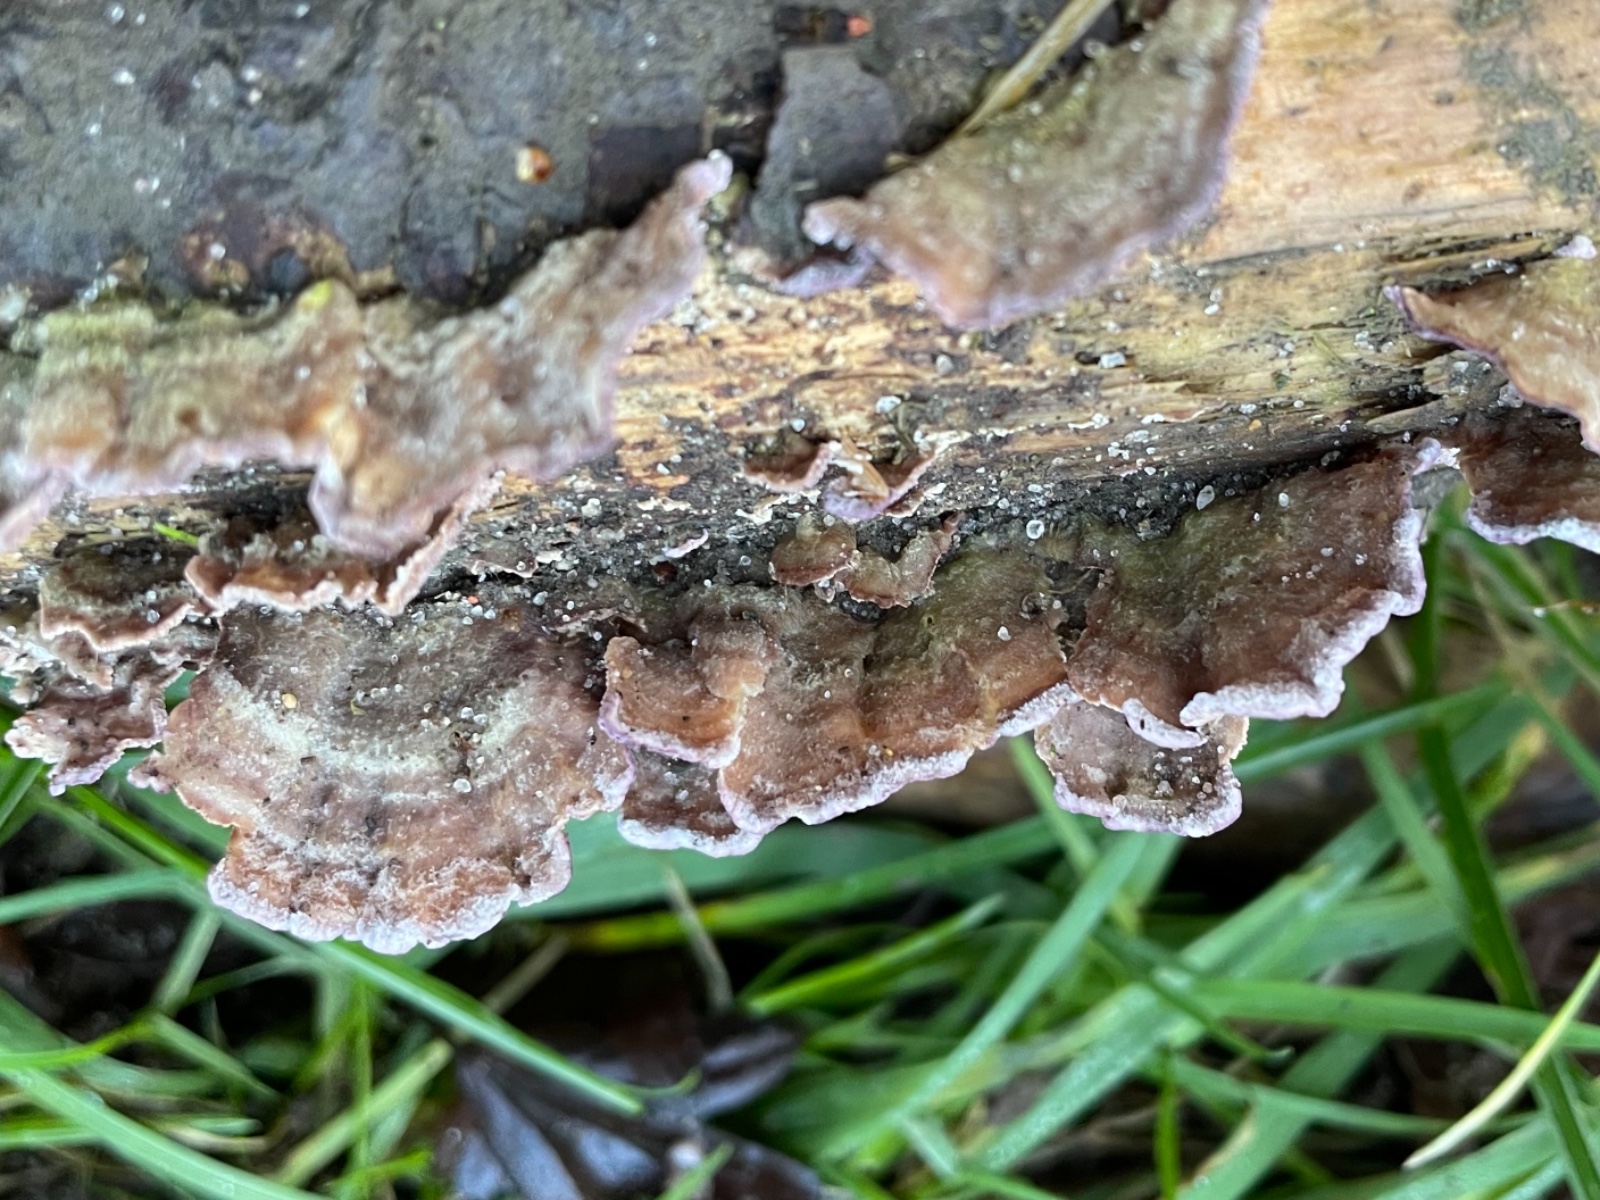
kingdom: Fungi
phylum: Basidiomycota
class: Agaricomycetes
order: Hymenochaetales
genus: Trichaptum
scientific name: Trichaptum abietinum
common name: almindelig violporesvamp
